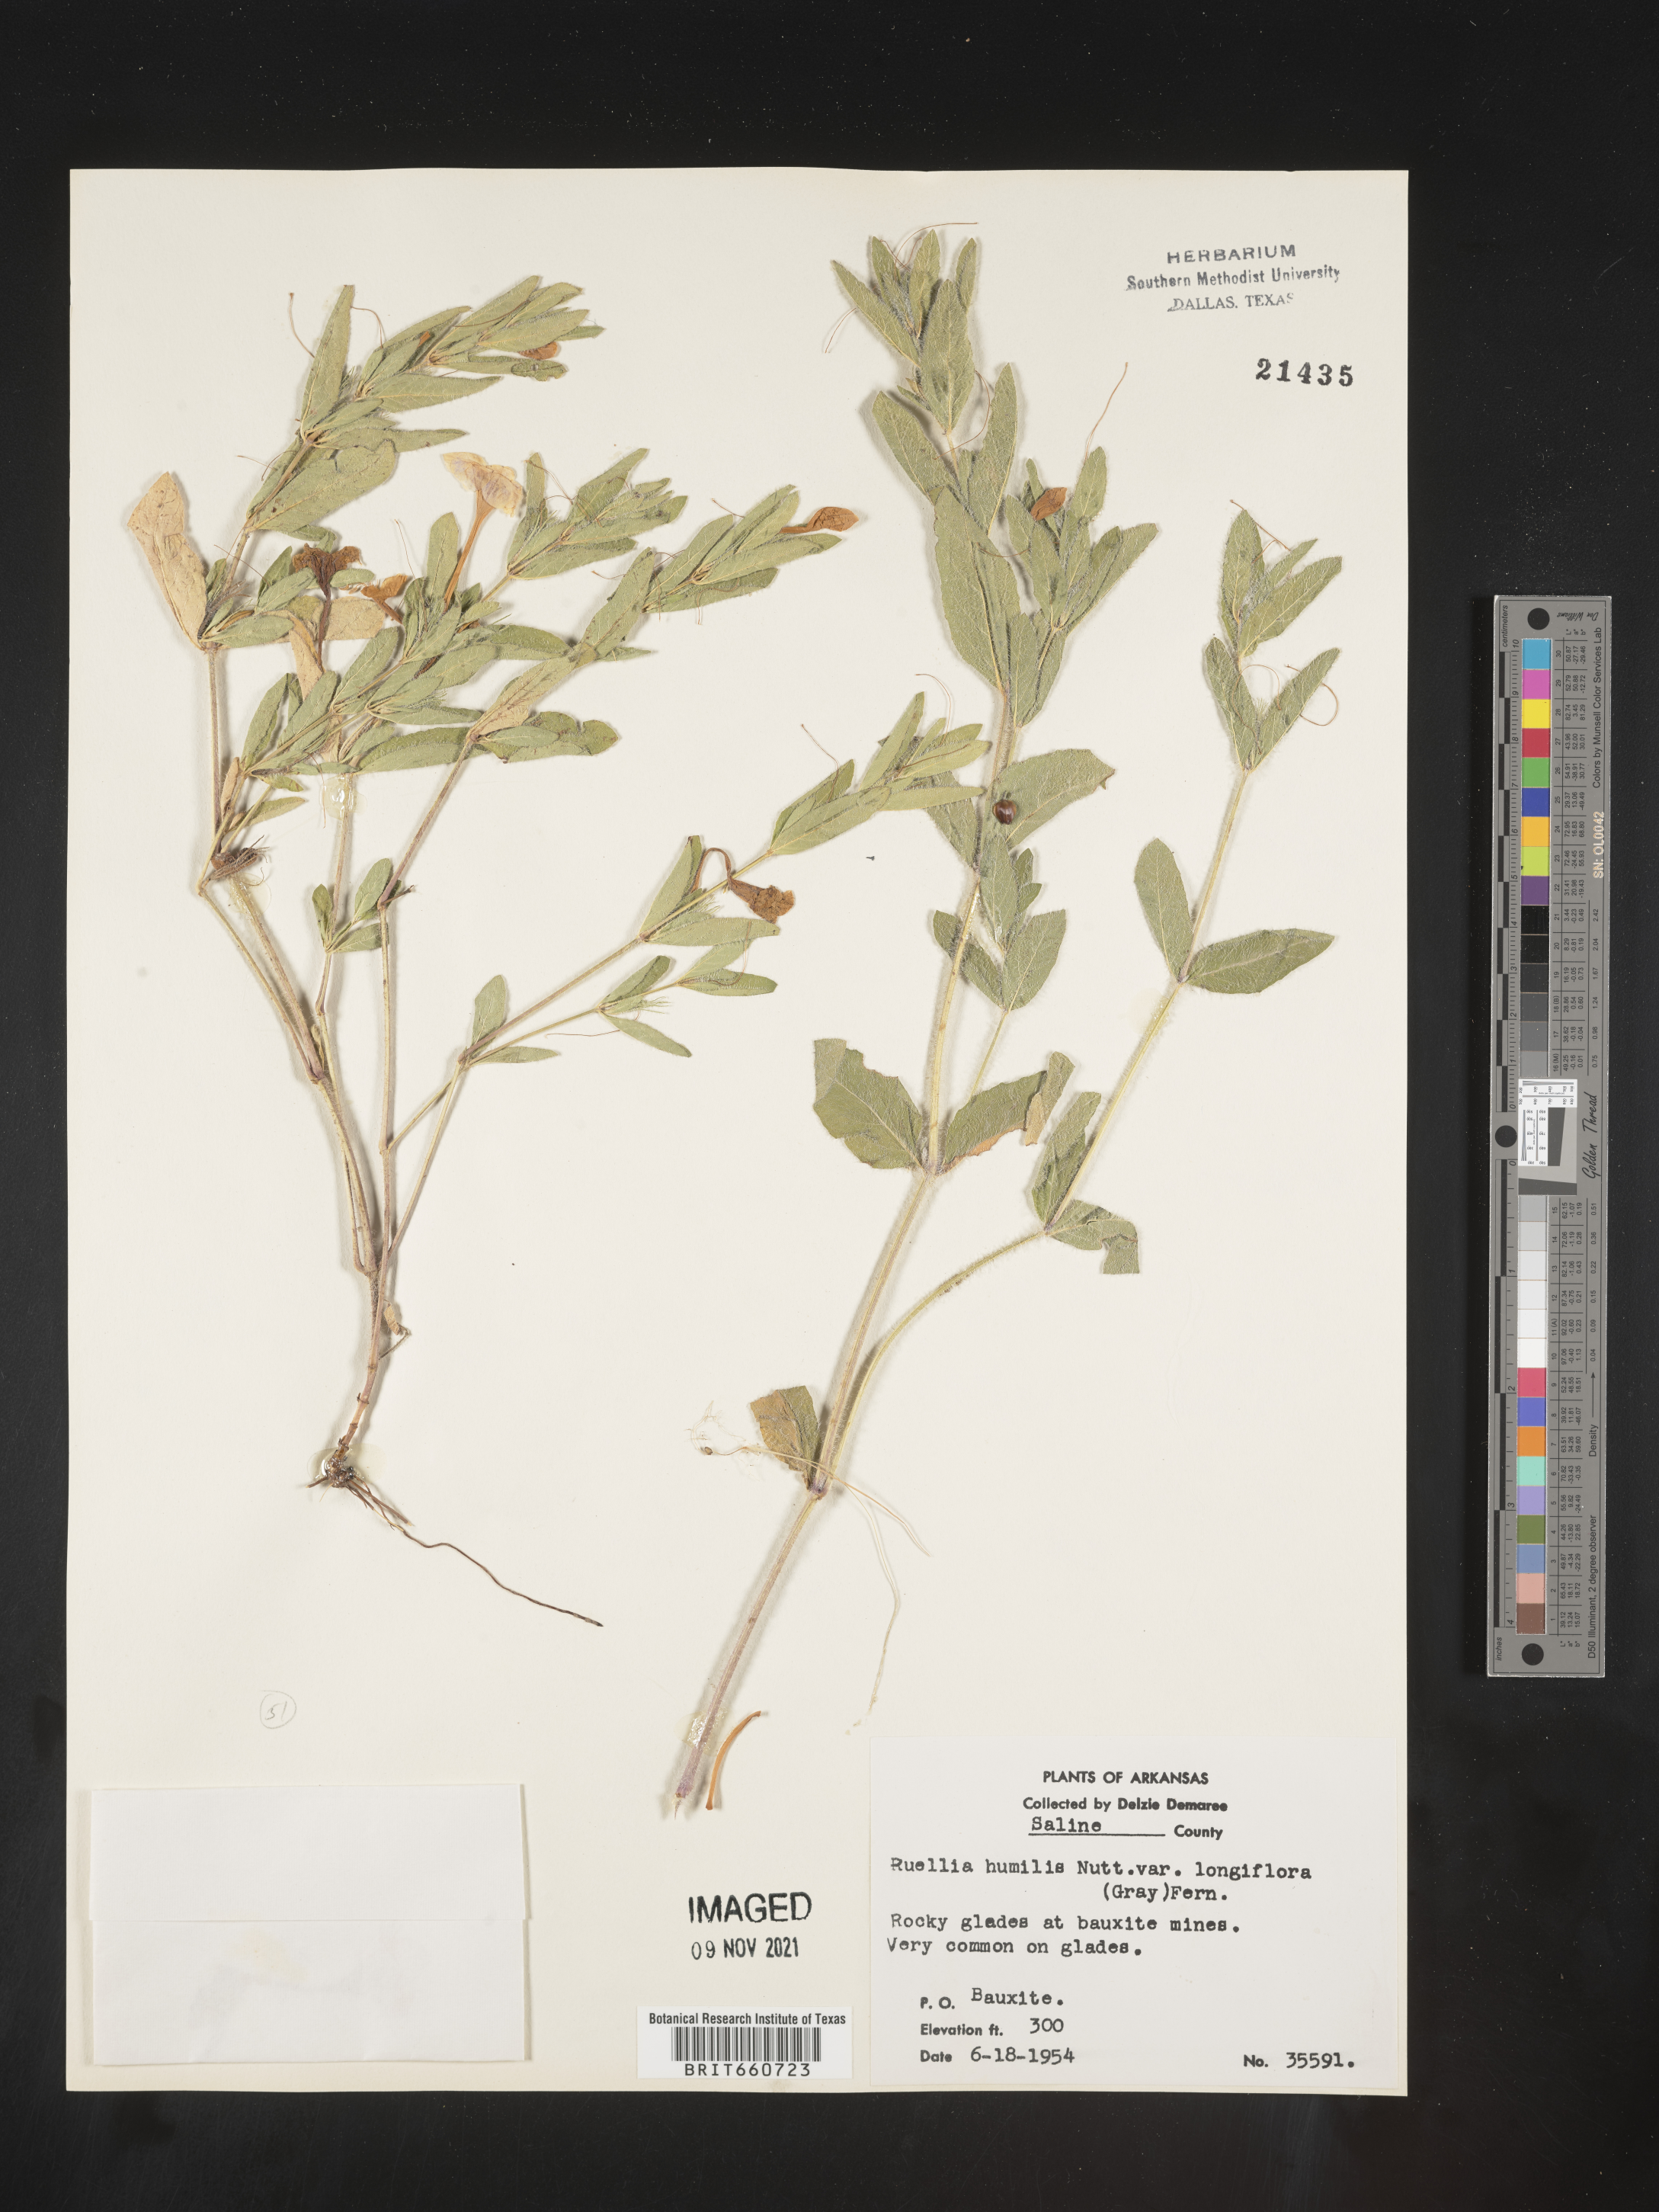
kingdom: Plantae
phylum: Tracheophyta
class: Magnoliopsida
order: Lamiales
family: Acanthaceae
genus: Ruellia
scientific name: Ruellia humilis
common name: Fringe-leaf ruellia
